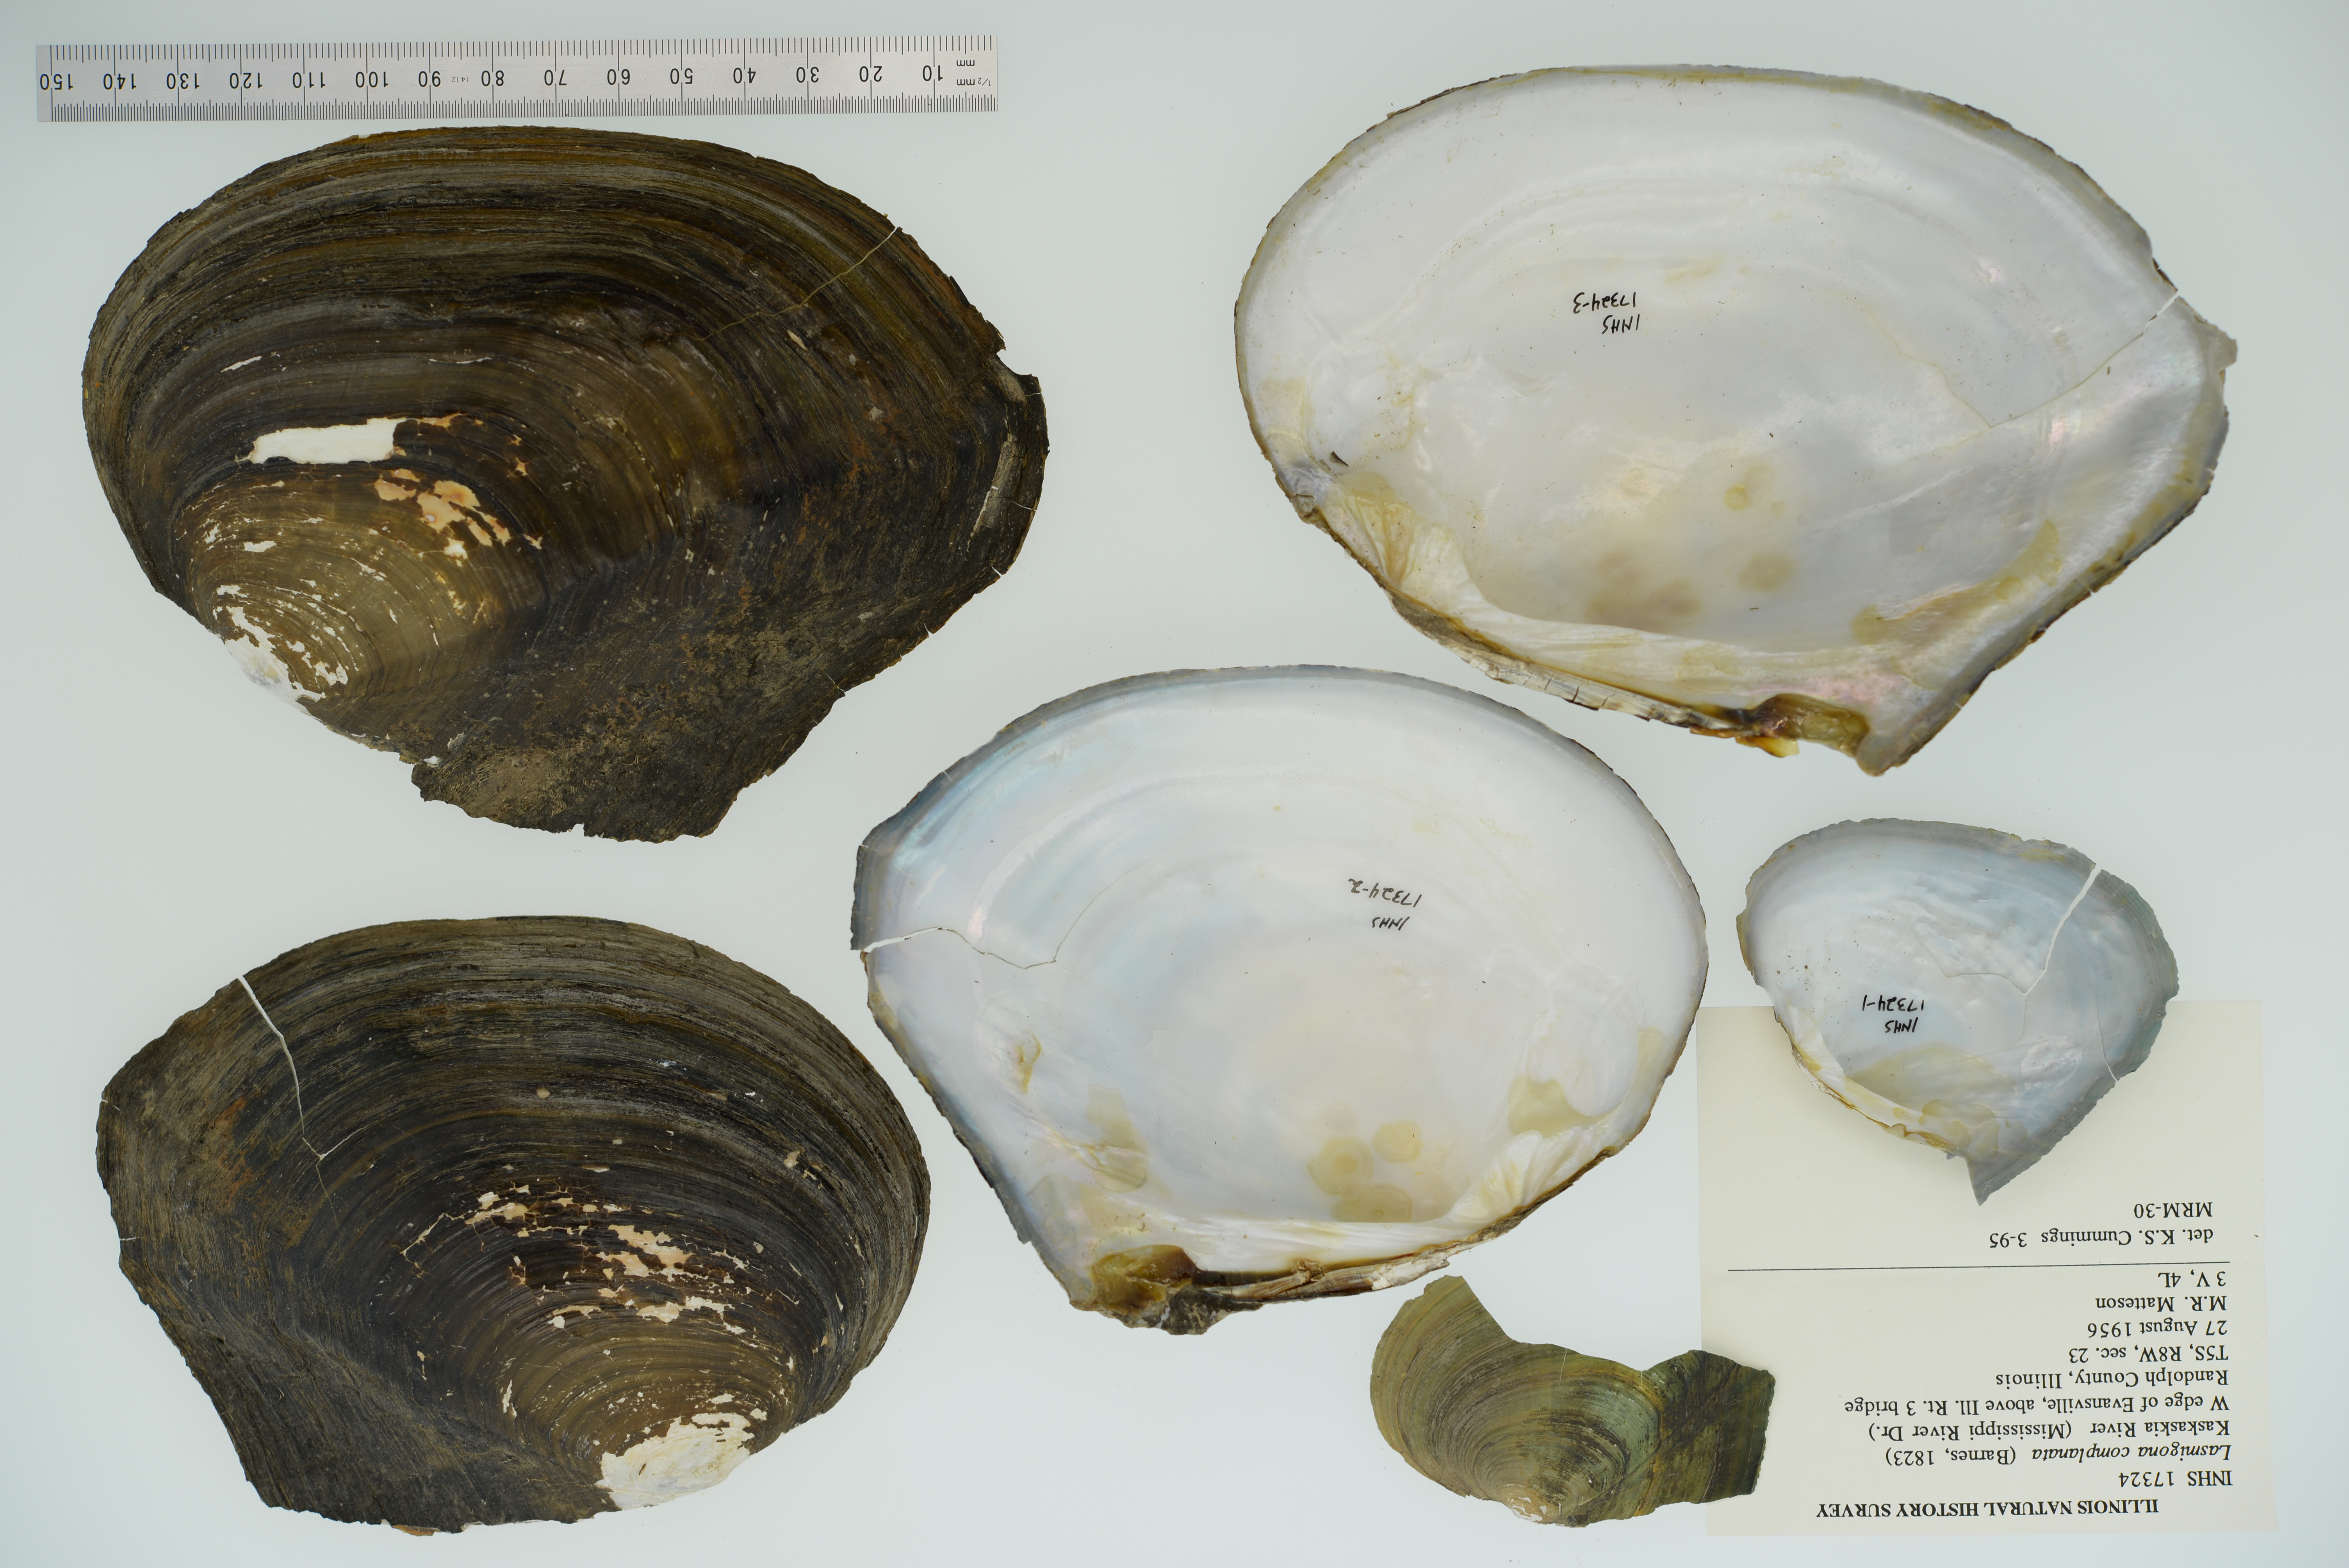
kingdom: Animalia
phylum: Mollusca
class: Bivalvia
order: Unionida
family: Unionidae
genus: Lasmigona
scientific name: Lasmigona complanata
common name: White heelsplitter
